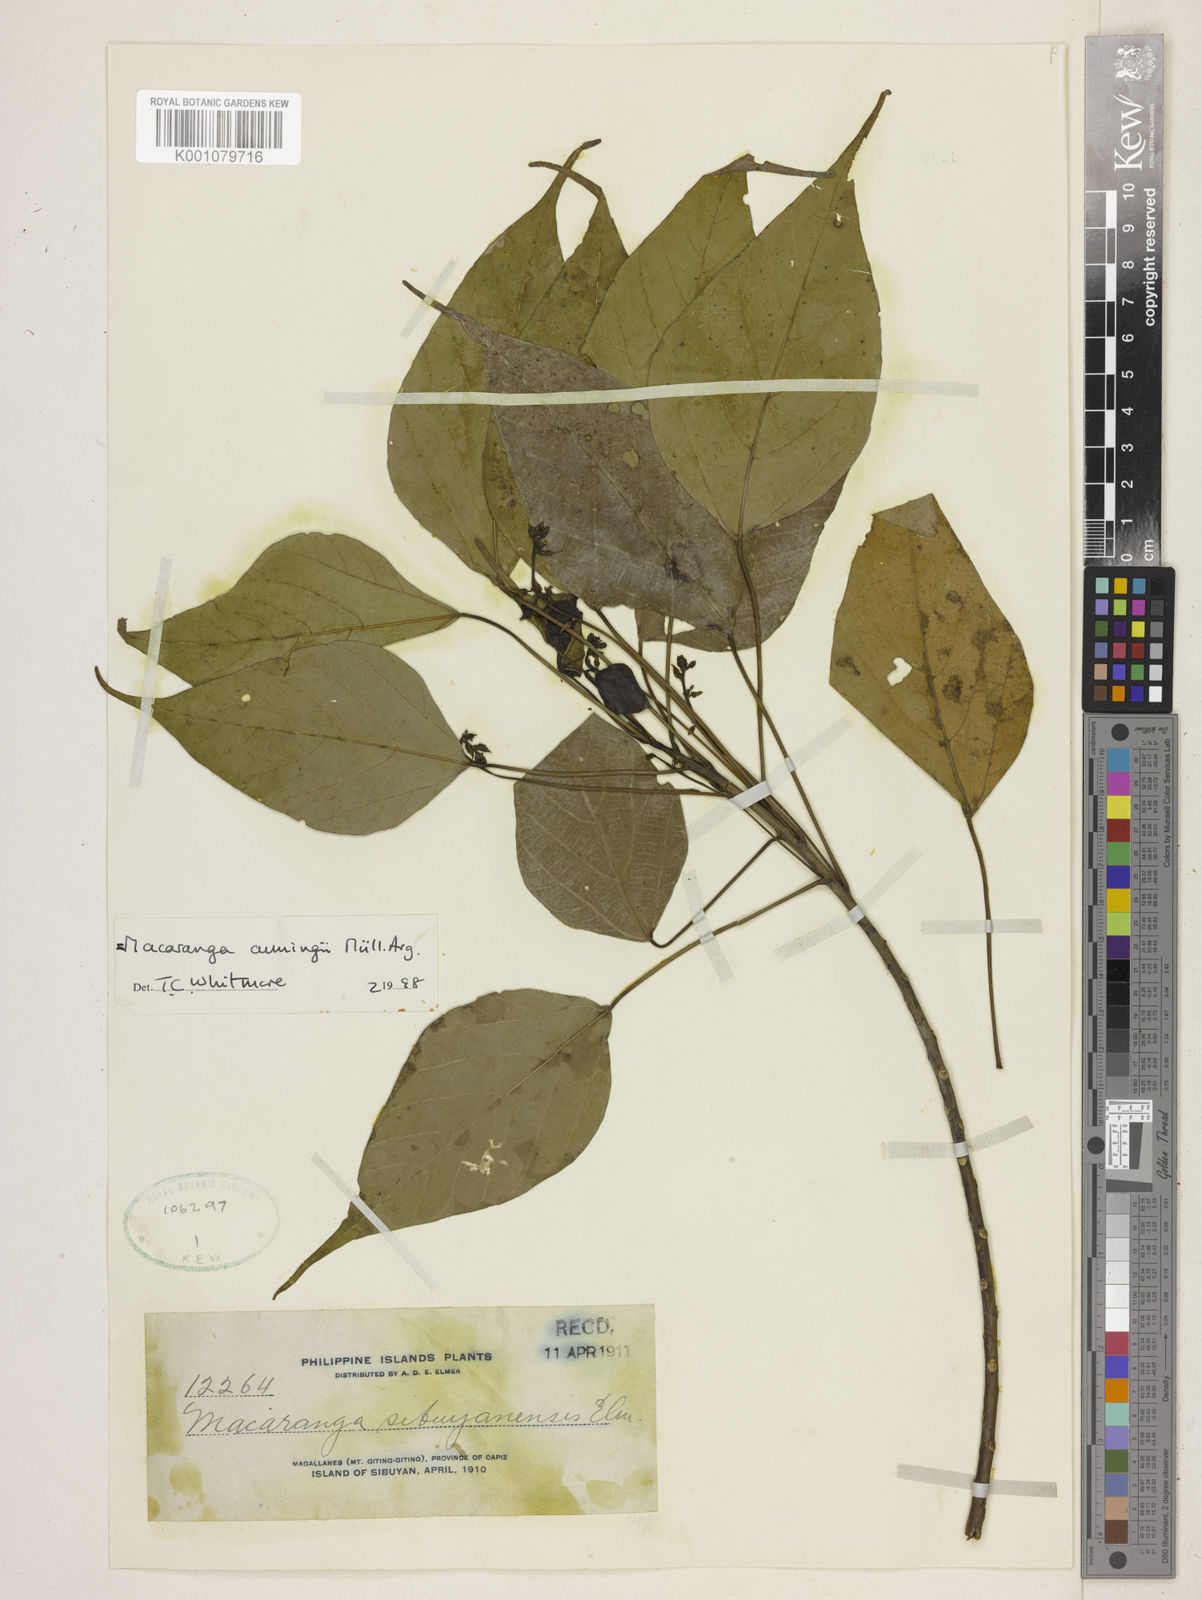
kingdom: Plantae
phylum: Tracheophyta
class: Magnoliopsida
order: Malpighiales
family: Euphorbiaceae
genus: Macaranga
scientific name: Macaranga
